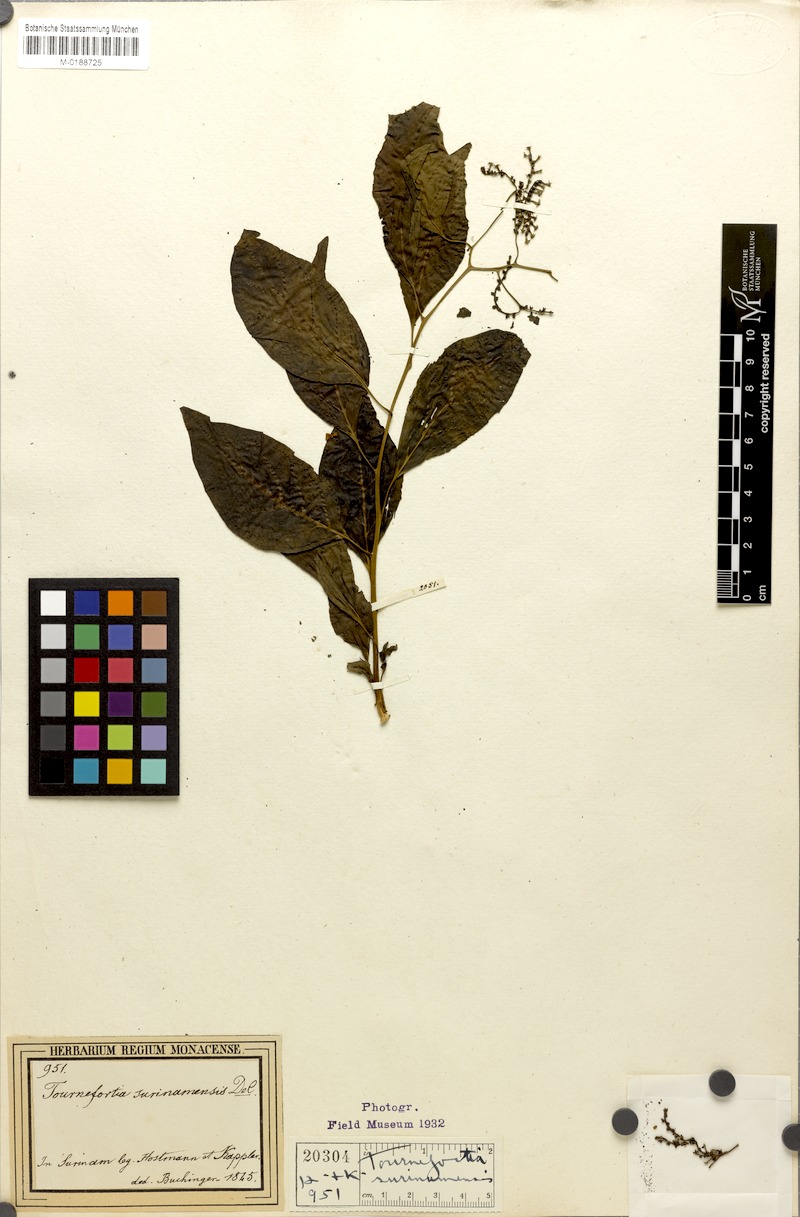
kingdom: Plantae
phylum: Tracheophyta
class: Magnoliopsida
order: Boraginales
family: Heliotropiaceae
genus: Myriopus
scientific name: Myriopus maculatus
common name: Laurel-leaf soldierbush
